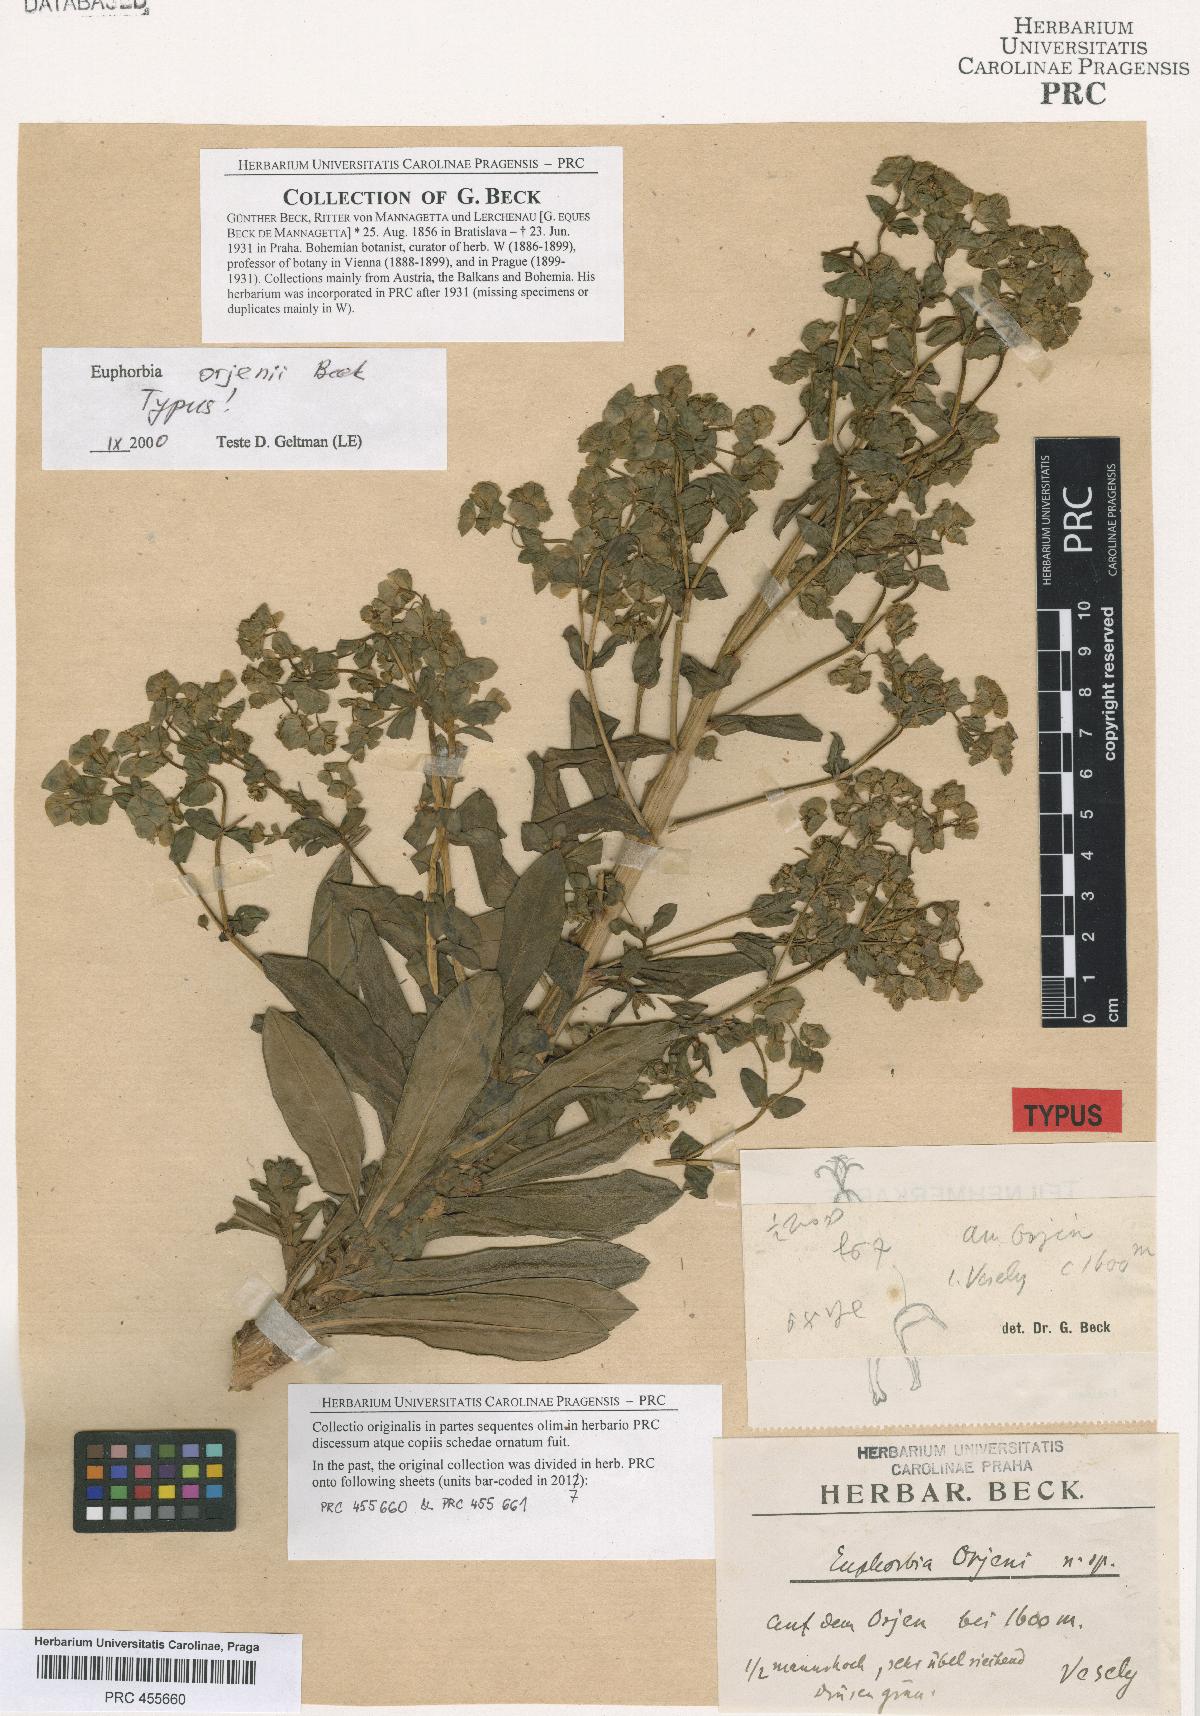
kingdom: Plantae
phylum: Tracheophyta
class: Magnoliopsida
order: Malpighiales
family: Euphorbiaceae
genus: Euphorbia
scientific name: Euphorbia orjeni
